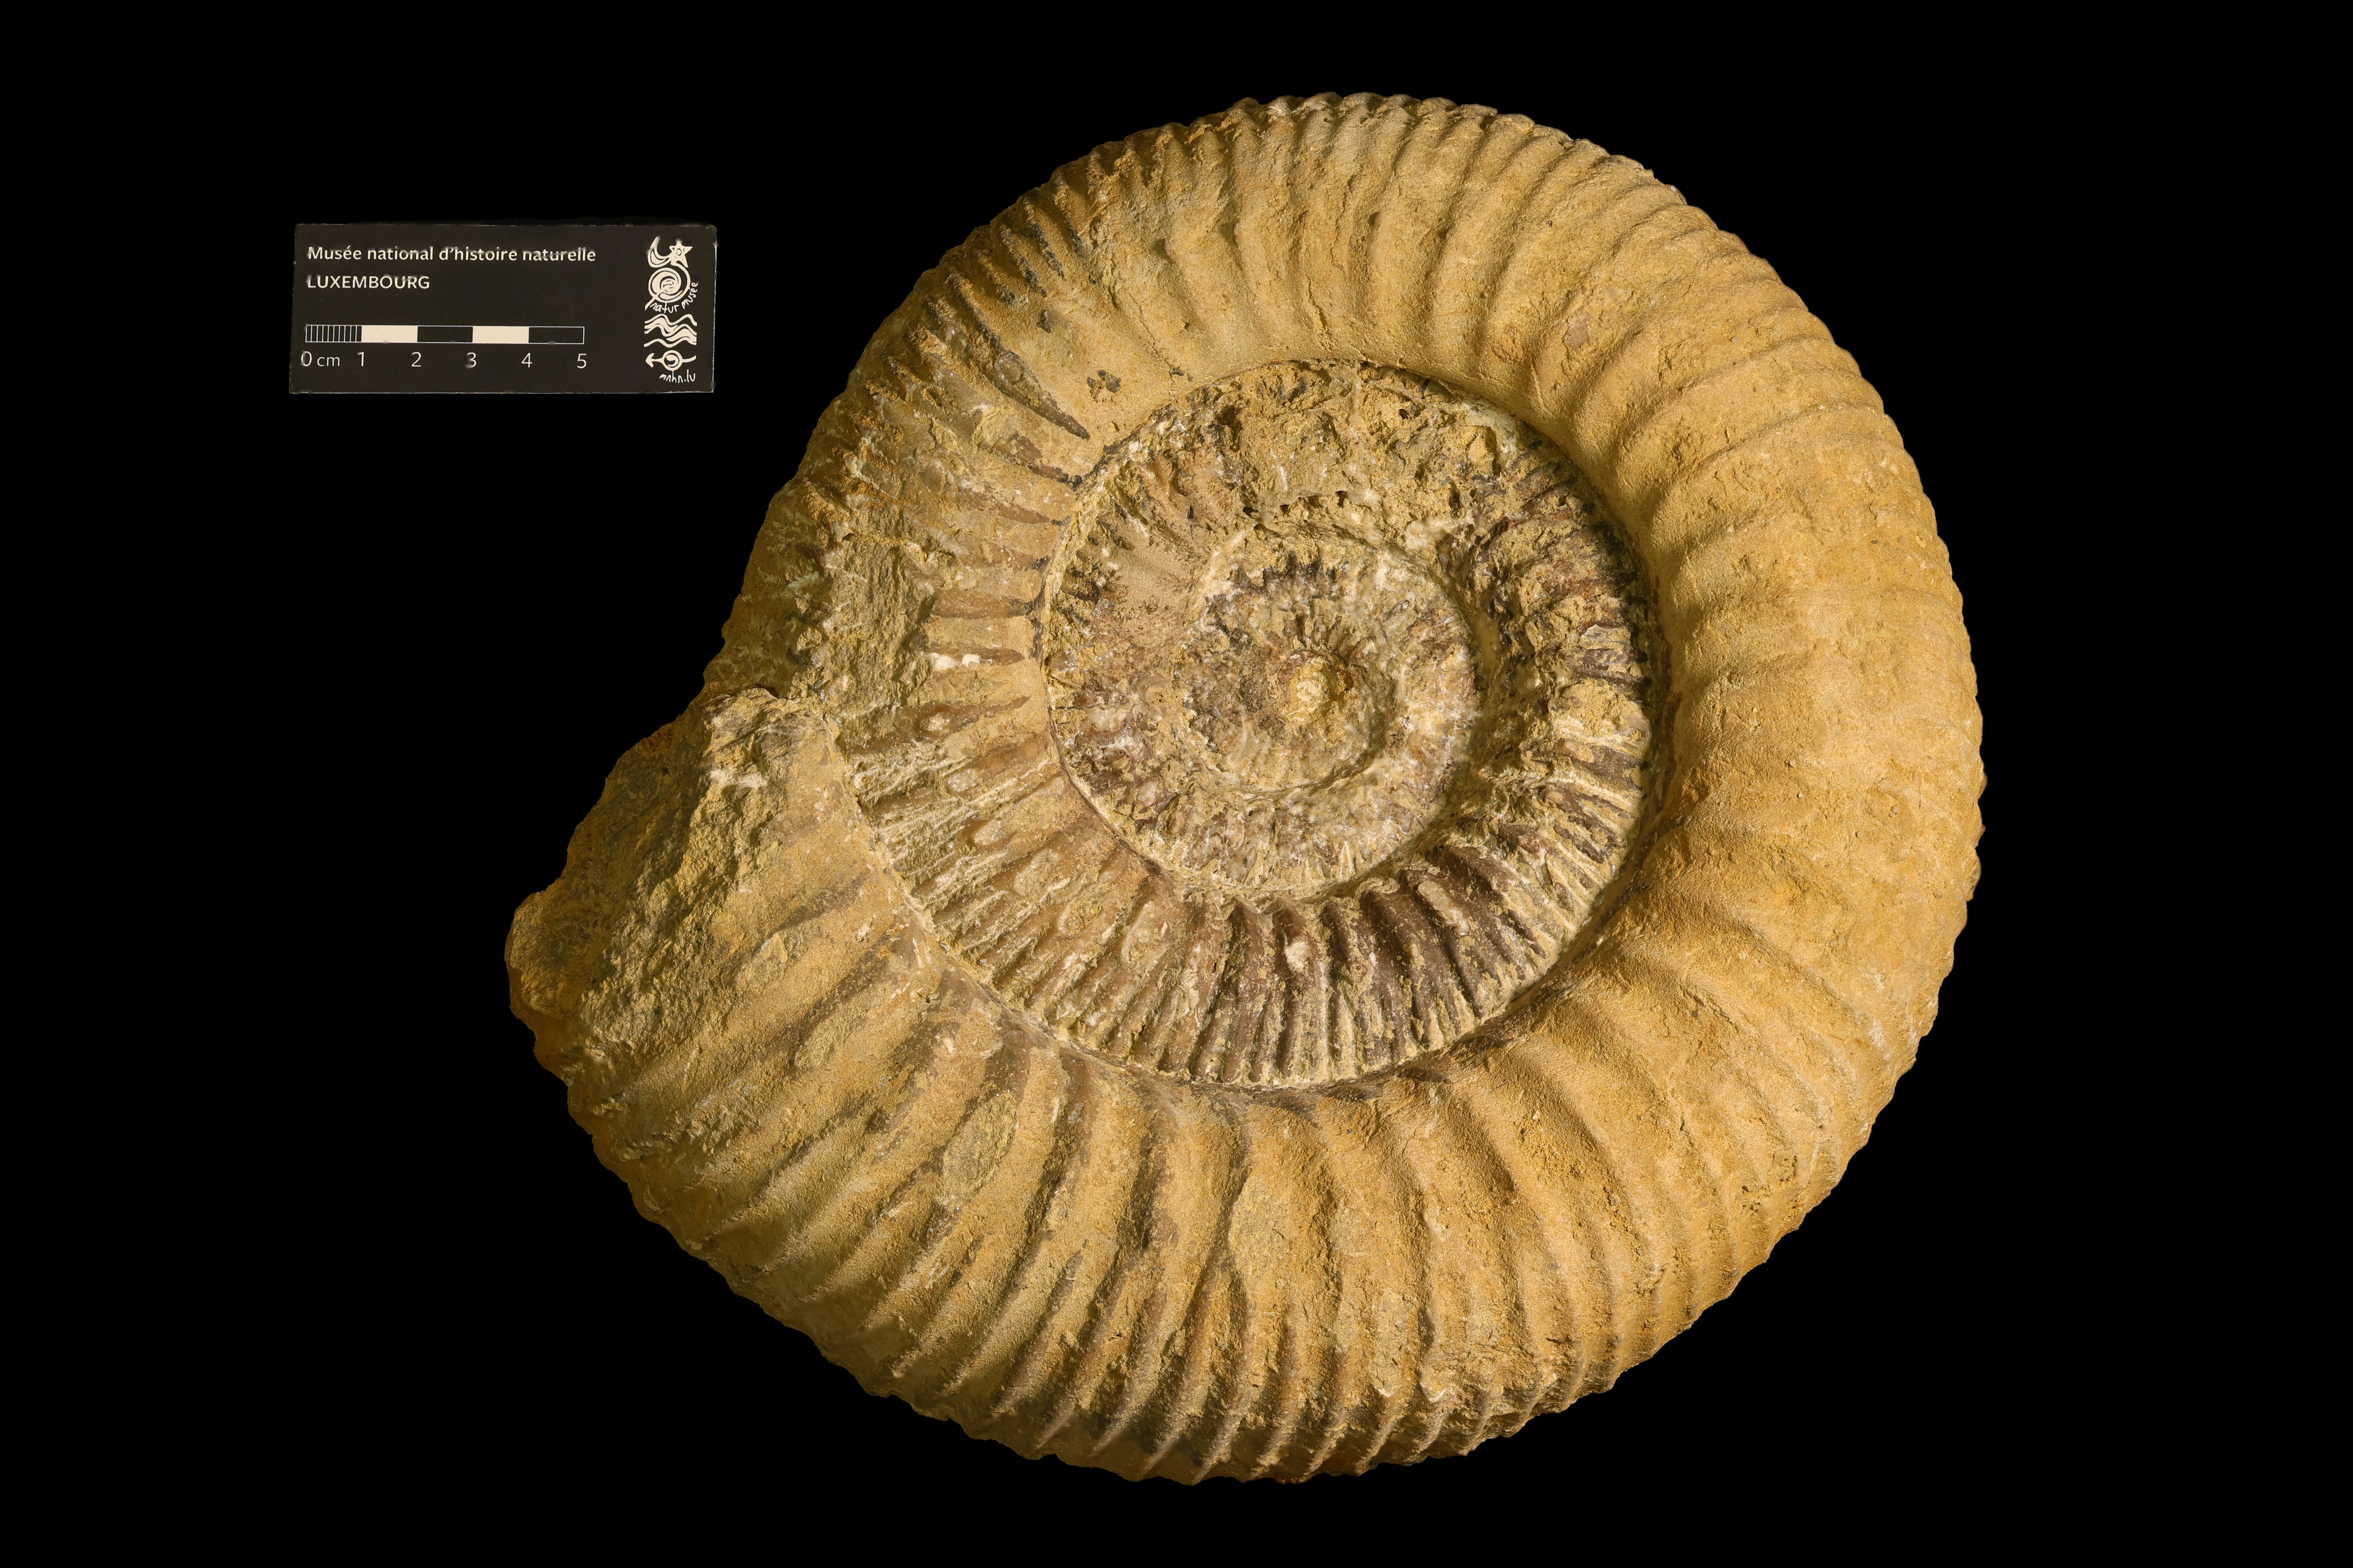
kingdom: Animalia
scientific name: Animalia
